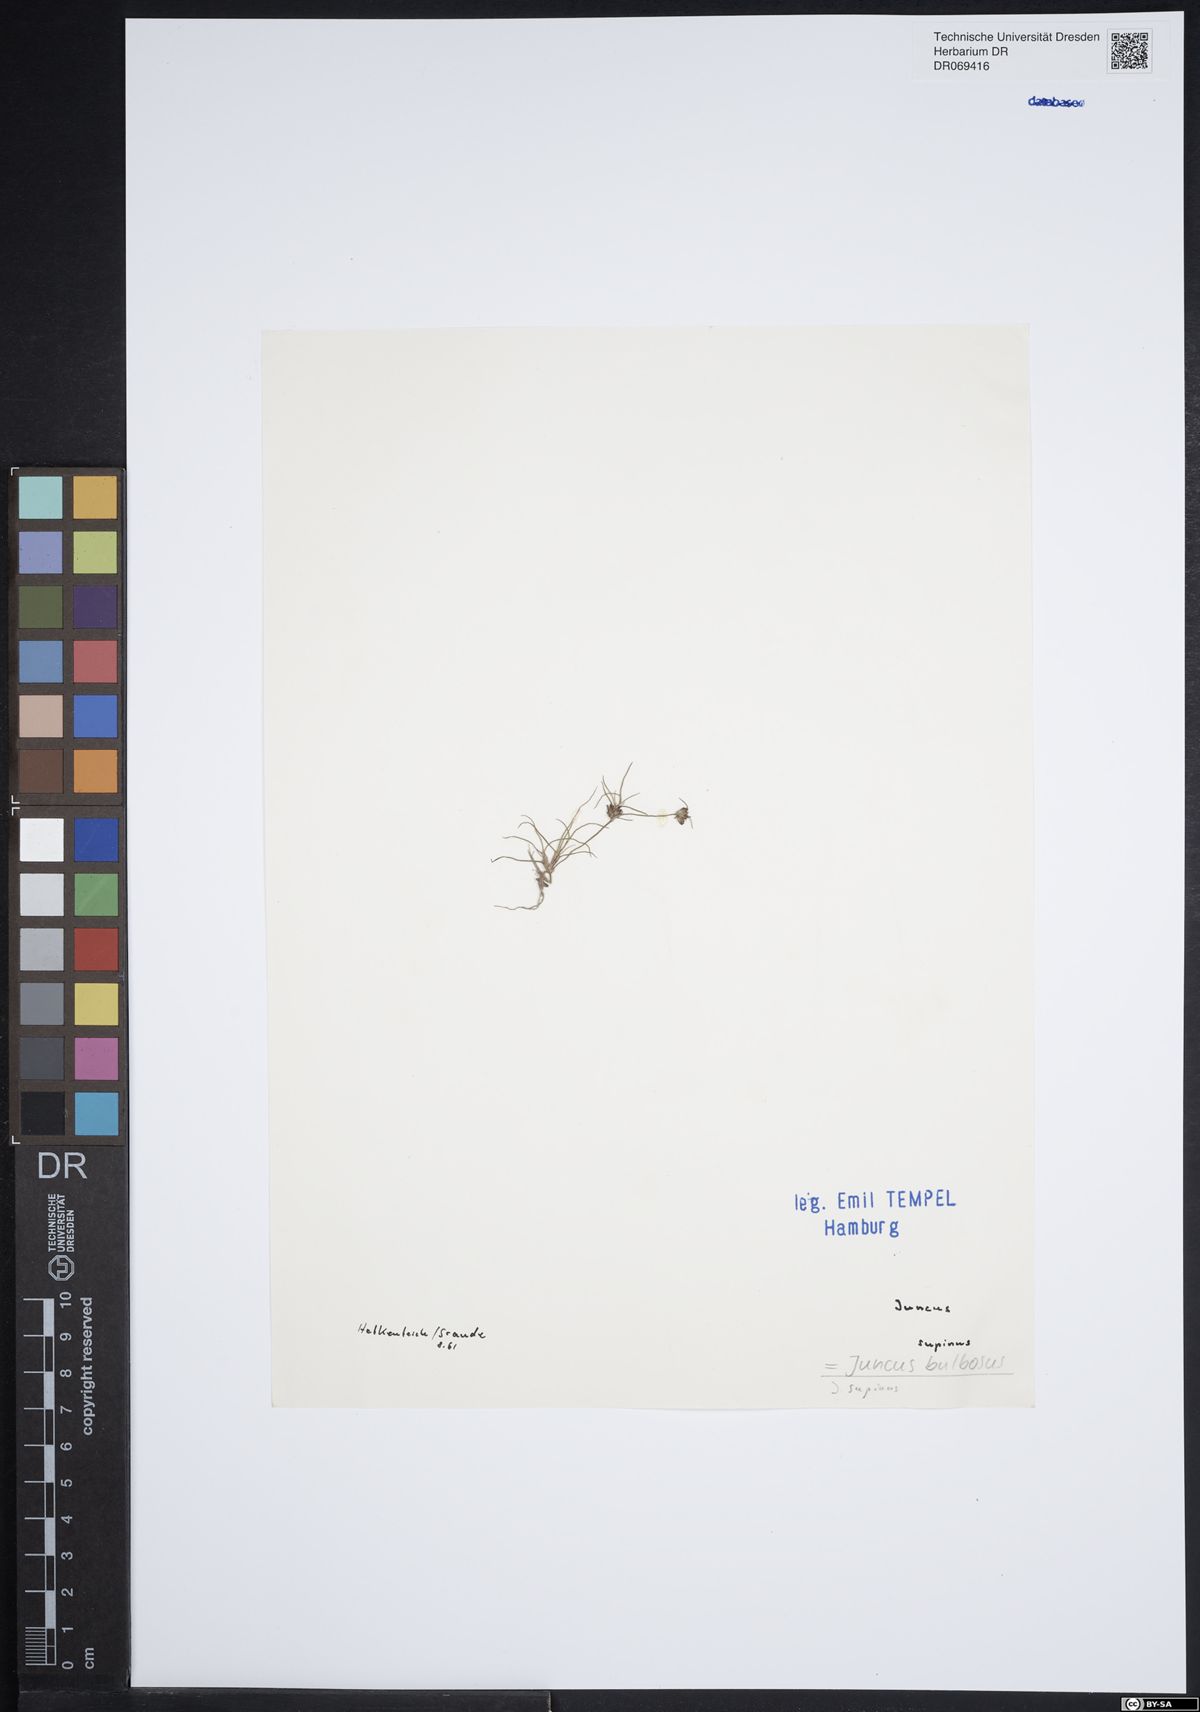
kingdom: Plantae
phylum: Tracheophyta
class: Liliopsida
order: Poales
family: Juncaceae
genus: Juncus
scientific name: Juncus bulbosus
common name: Bulbous rush
